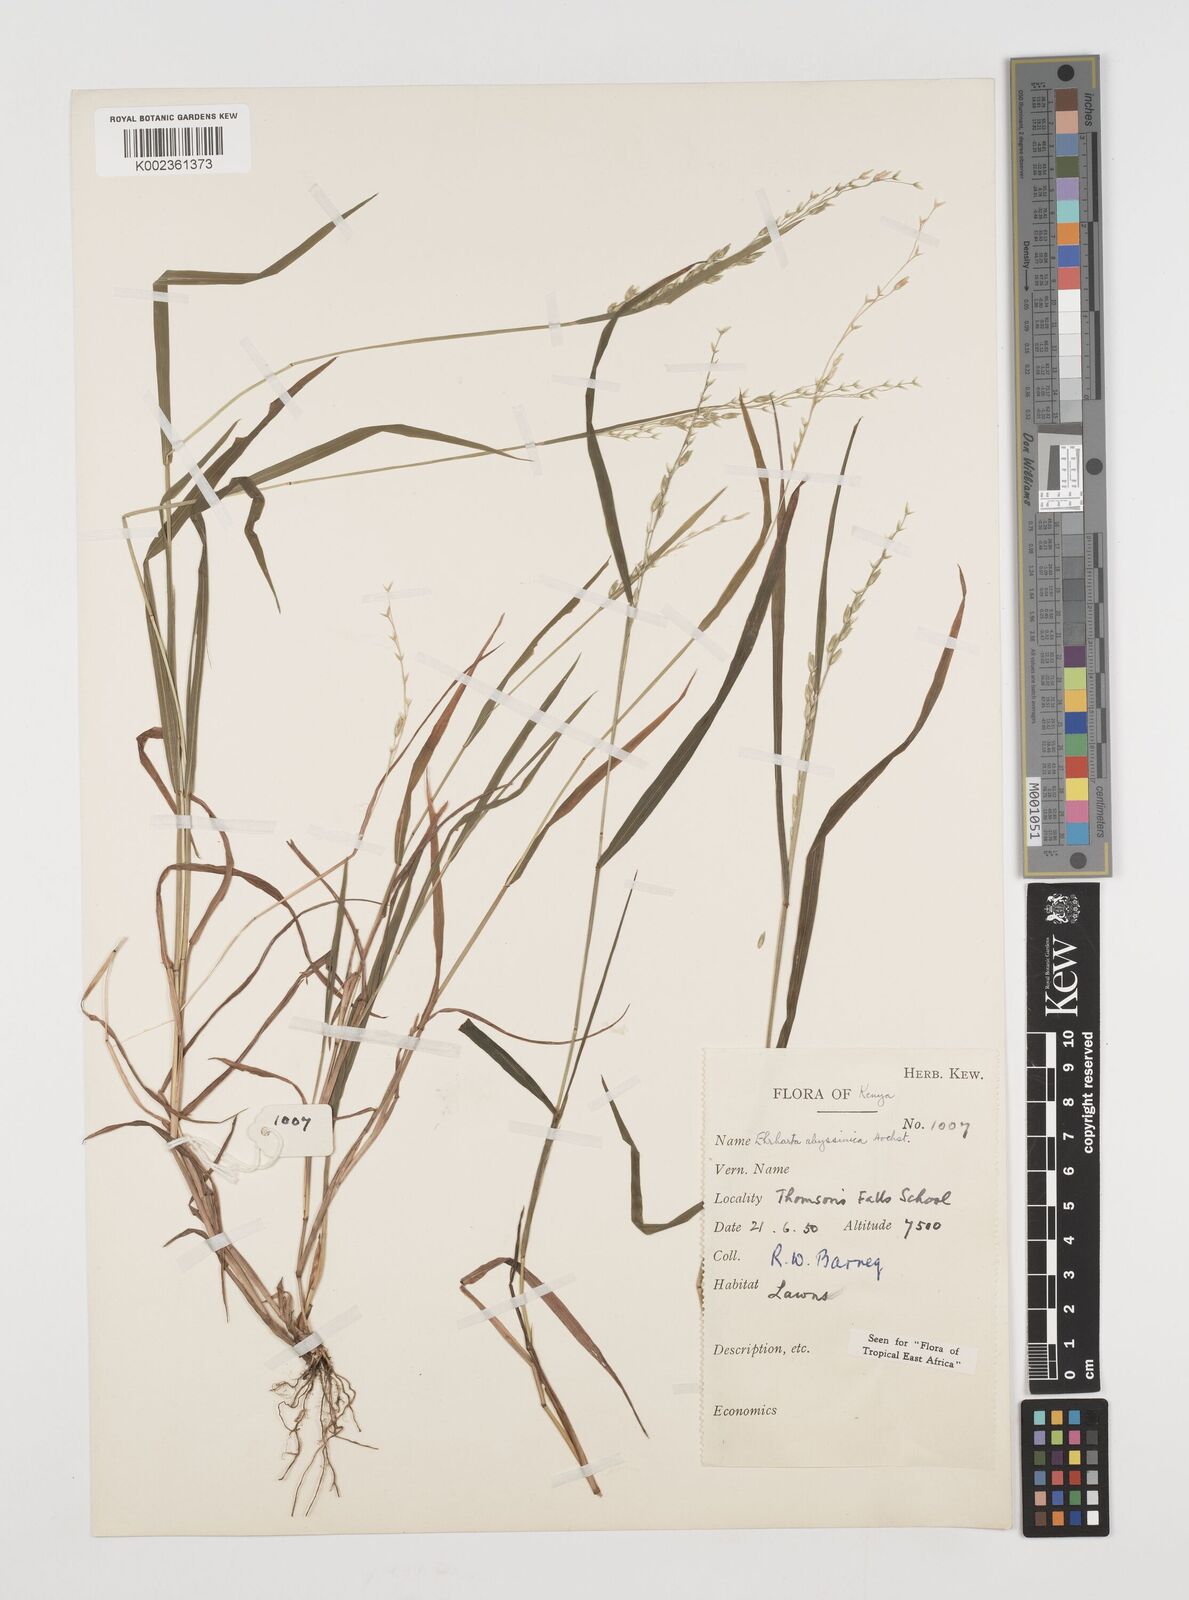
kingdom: Plantae
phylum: Tracheophyta
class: Liliopsida
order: Poales
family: Poaceae
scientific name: Poaceae
